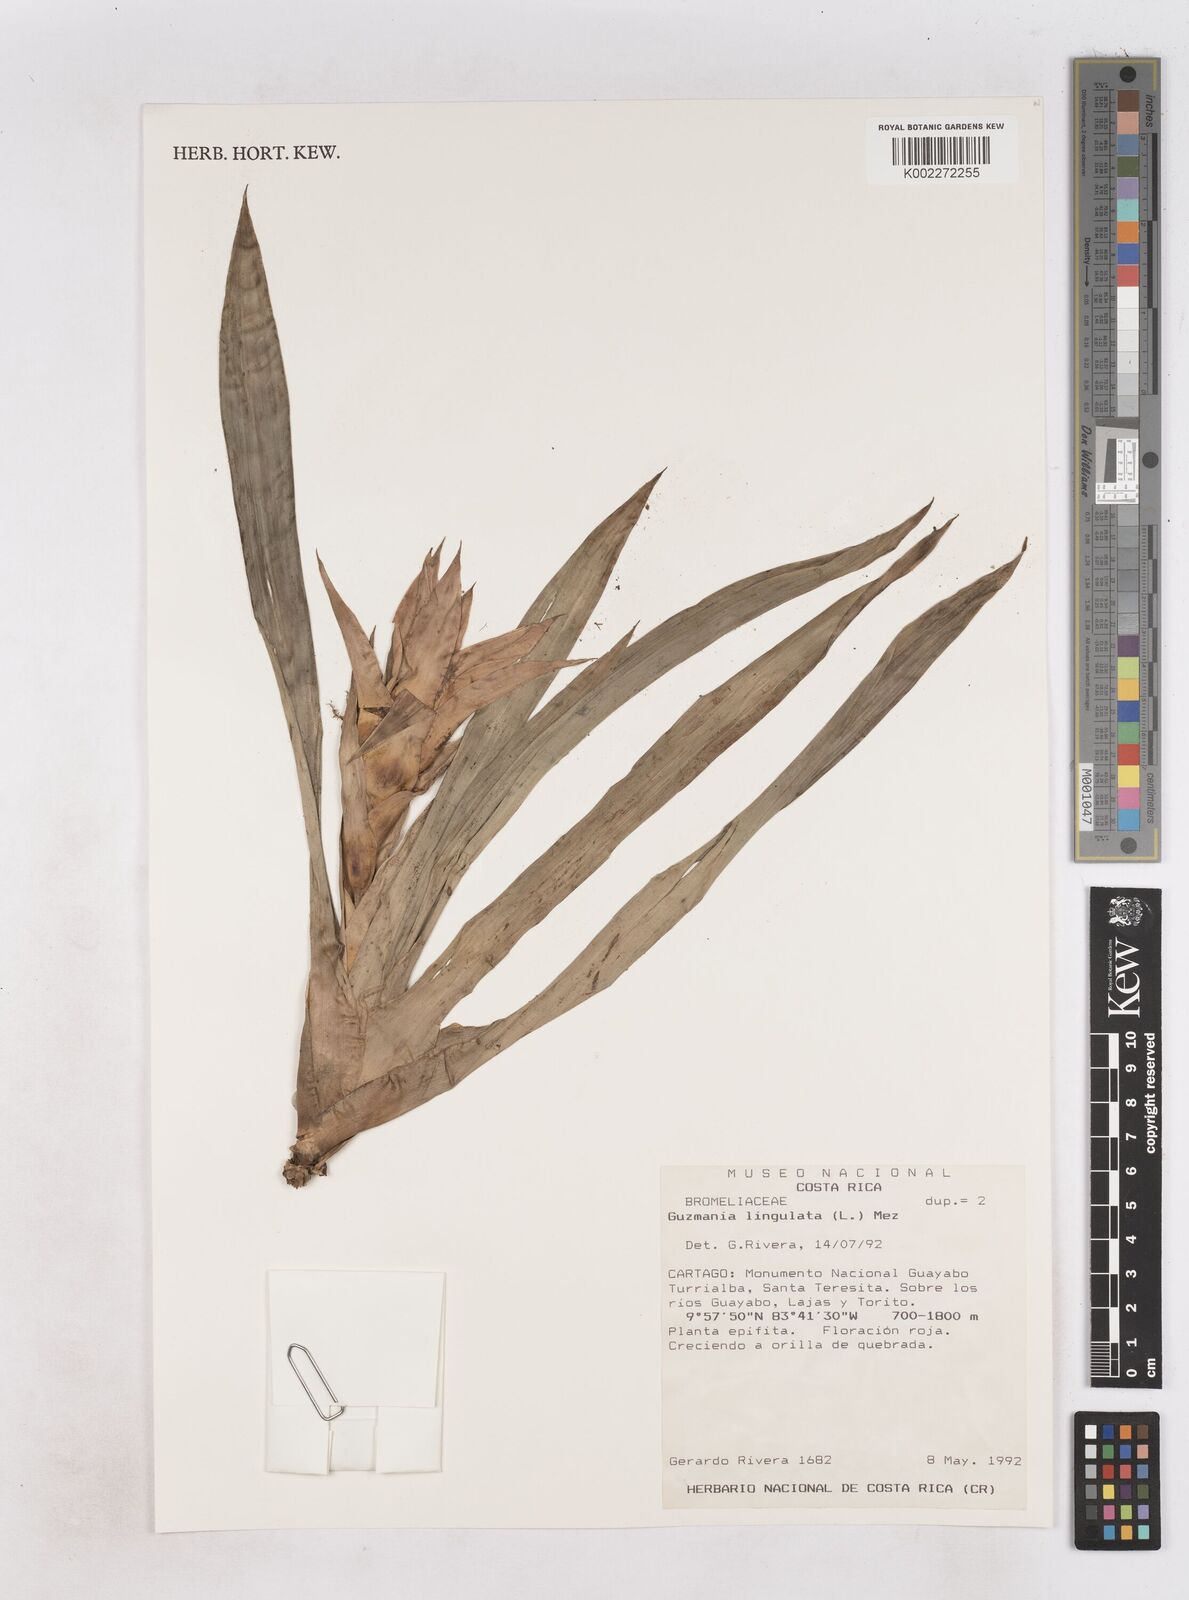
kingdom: Plantae
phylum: Tracheophyta
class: Liliopsida
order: Poales
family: Bromeliaceae
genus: Guzmania
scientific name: Guzmania lingulata
